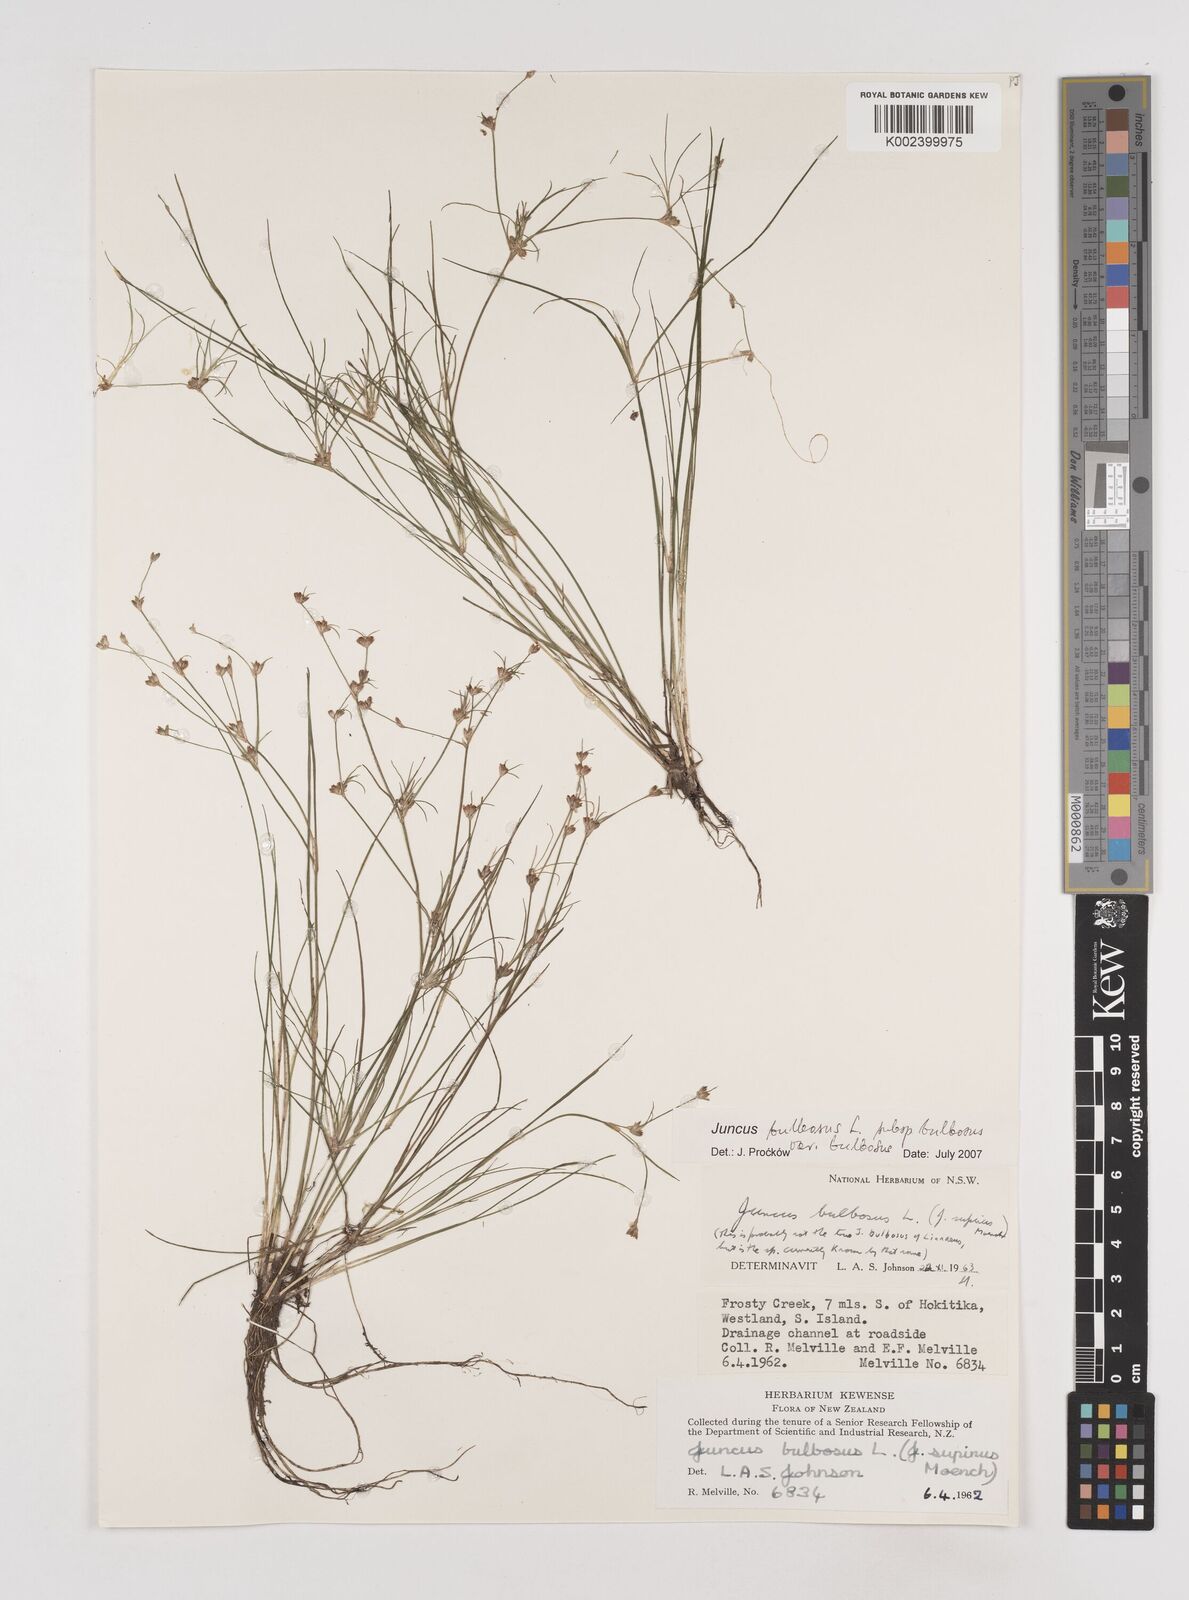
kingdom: Plantae
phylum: Tracheophyta
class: Liliopsida
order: Poales
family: Juncaceae
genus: Juncus
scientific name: Juncus bulbosus
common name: Bulbous rush
